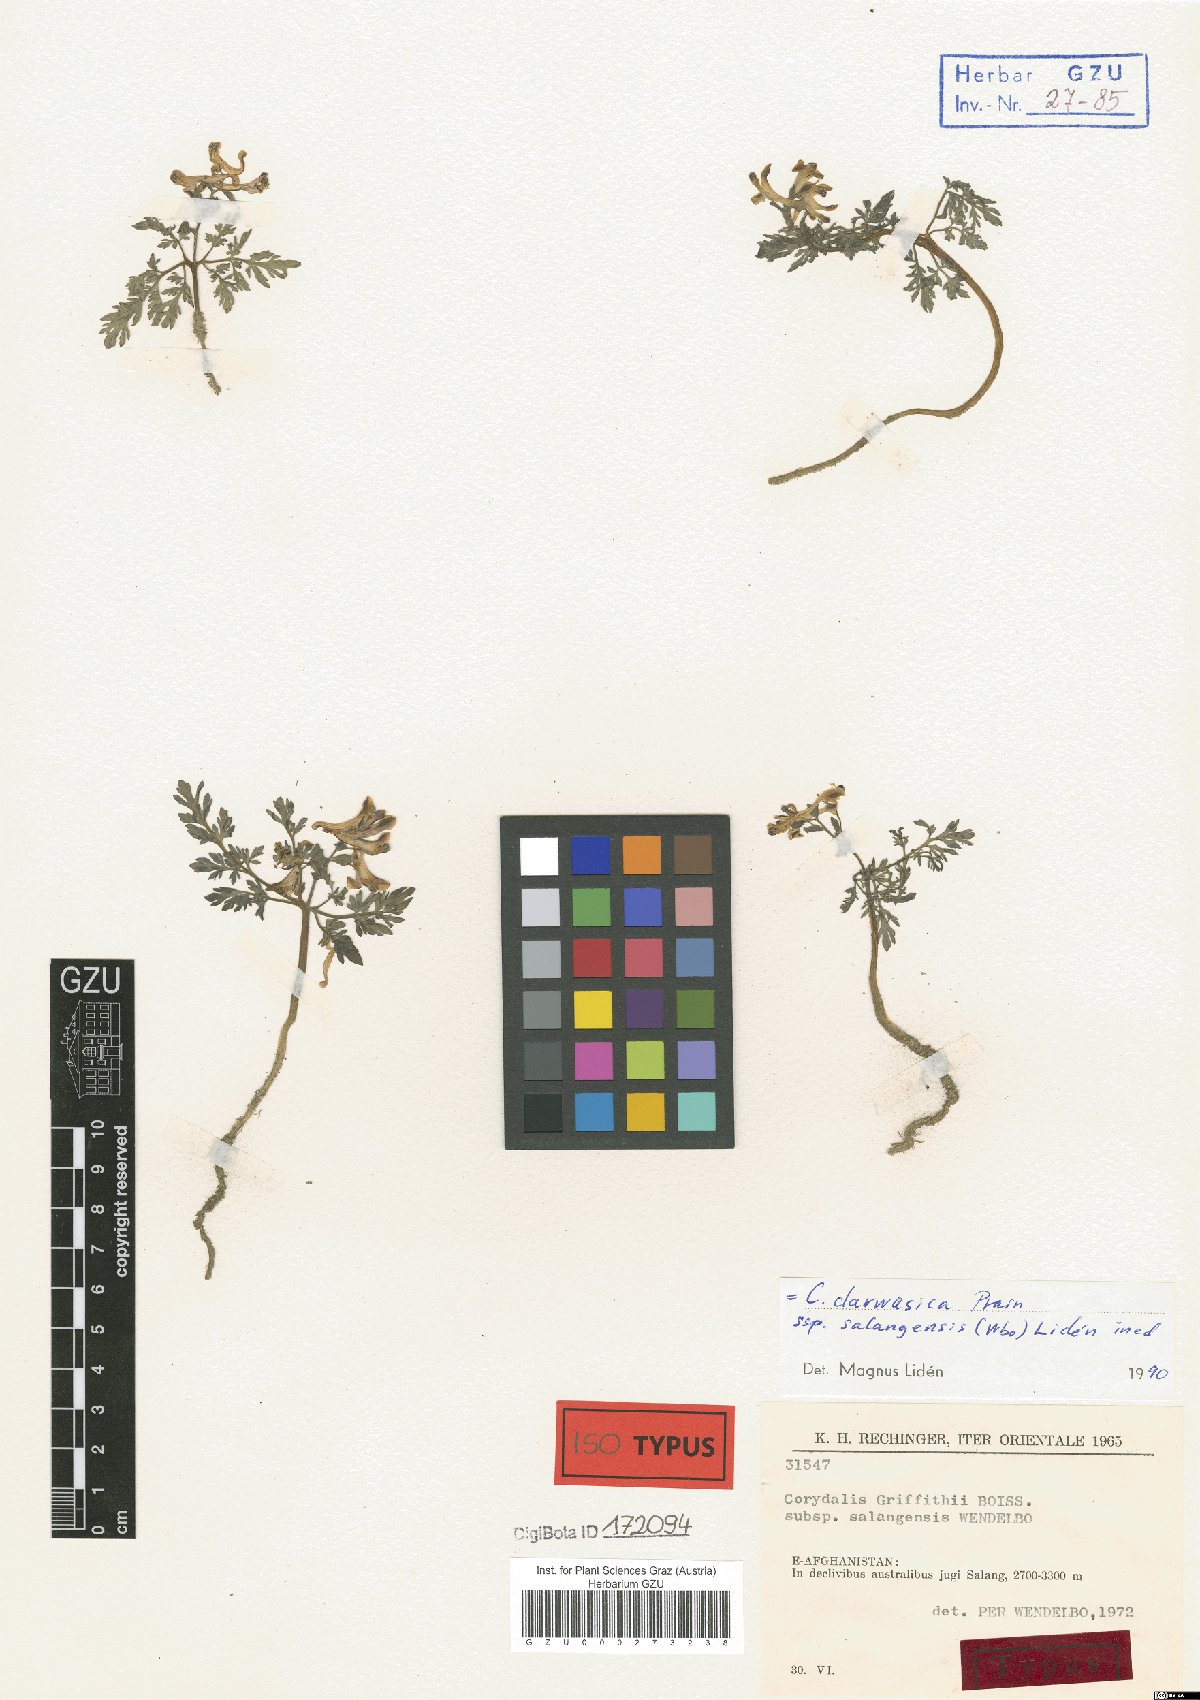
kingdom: Plantae
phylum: Tracheophyta
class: Magnoliopsida
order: Ranunculales
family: Papaveraceae
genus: Corydalis
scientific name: Corydalis griffithii
